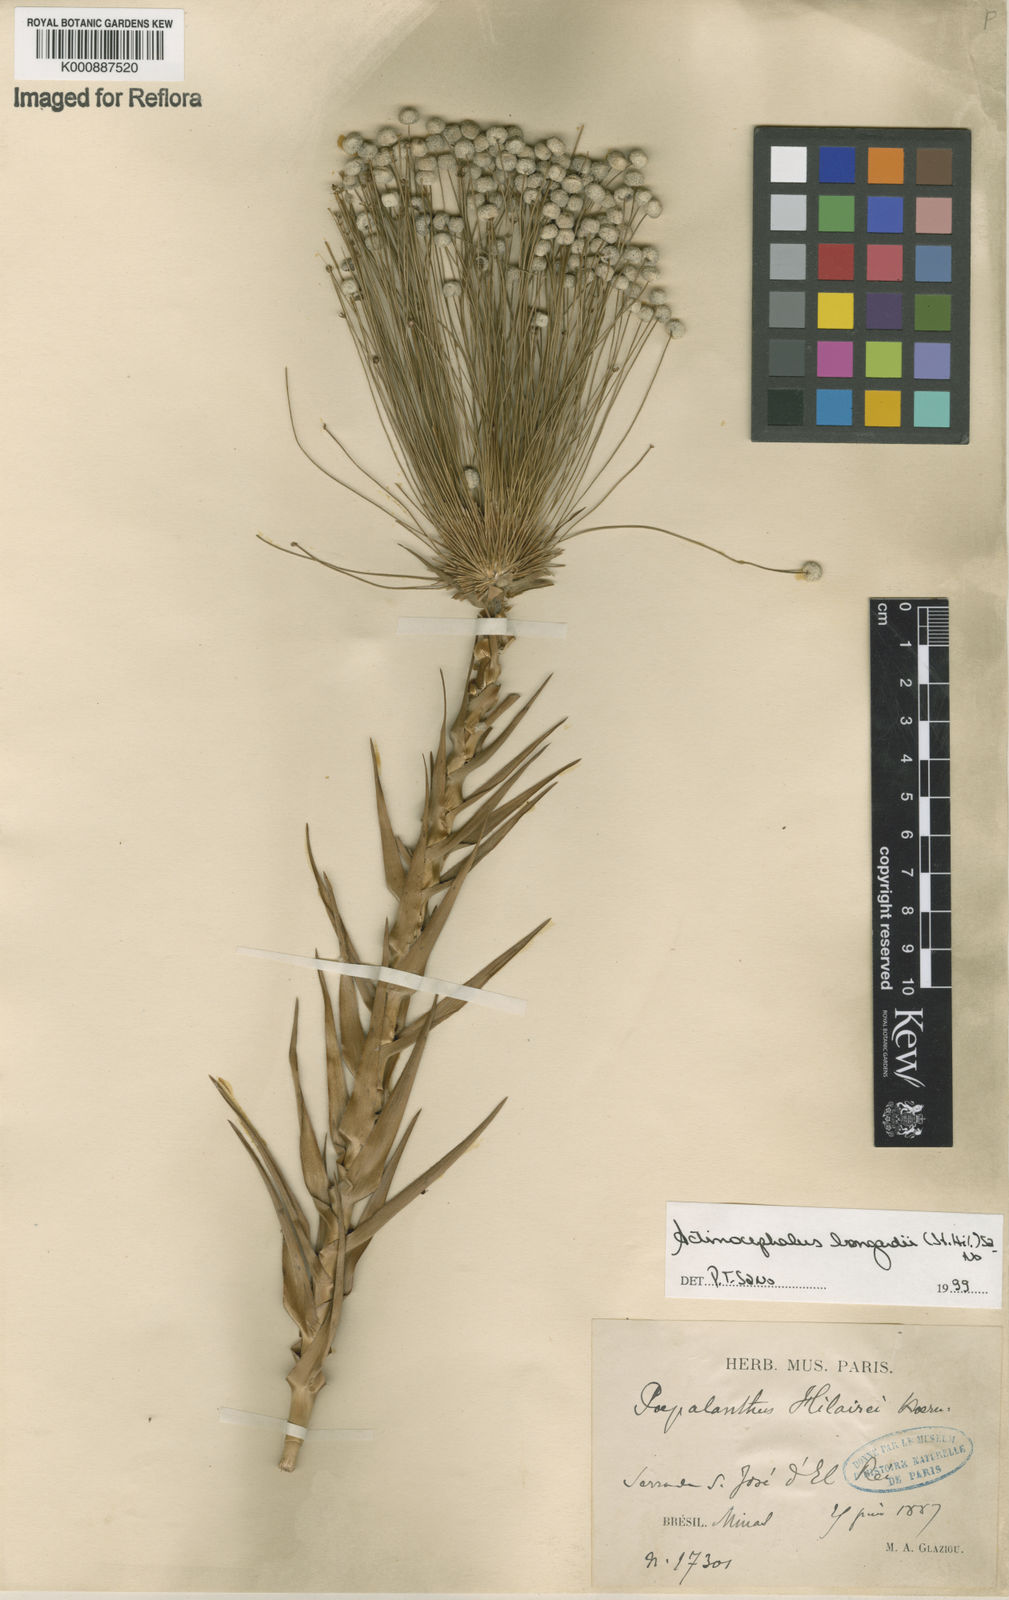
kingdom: Plantae
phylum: Tracheophyta
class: Liliopsida
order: Poales
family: Eriocaulaceae
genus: Paepalanthus
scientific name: Paepalanthus hilairei
